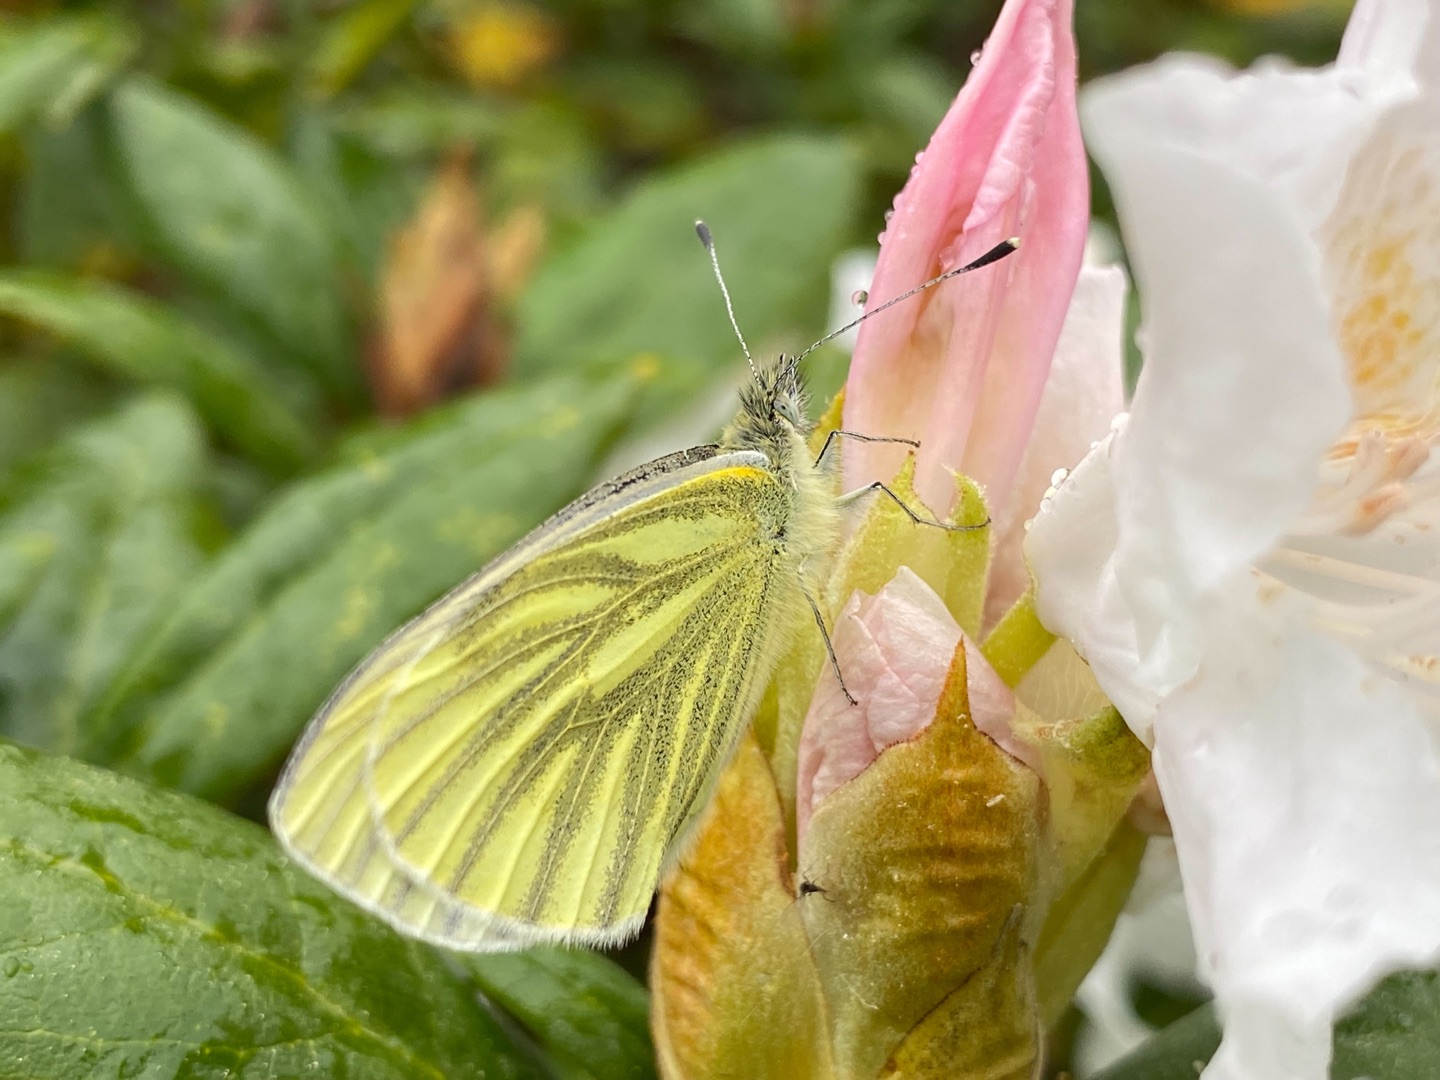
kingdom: Animalia
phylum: Arthropoda
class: Insecta
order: Lepidoptera
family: Pieridae
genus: Pieris
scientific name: Pieris napi
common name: Grønåret kålsommerfugl
